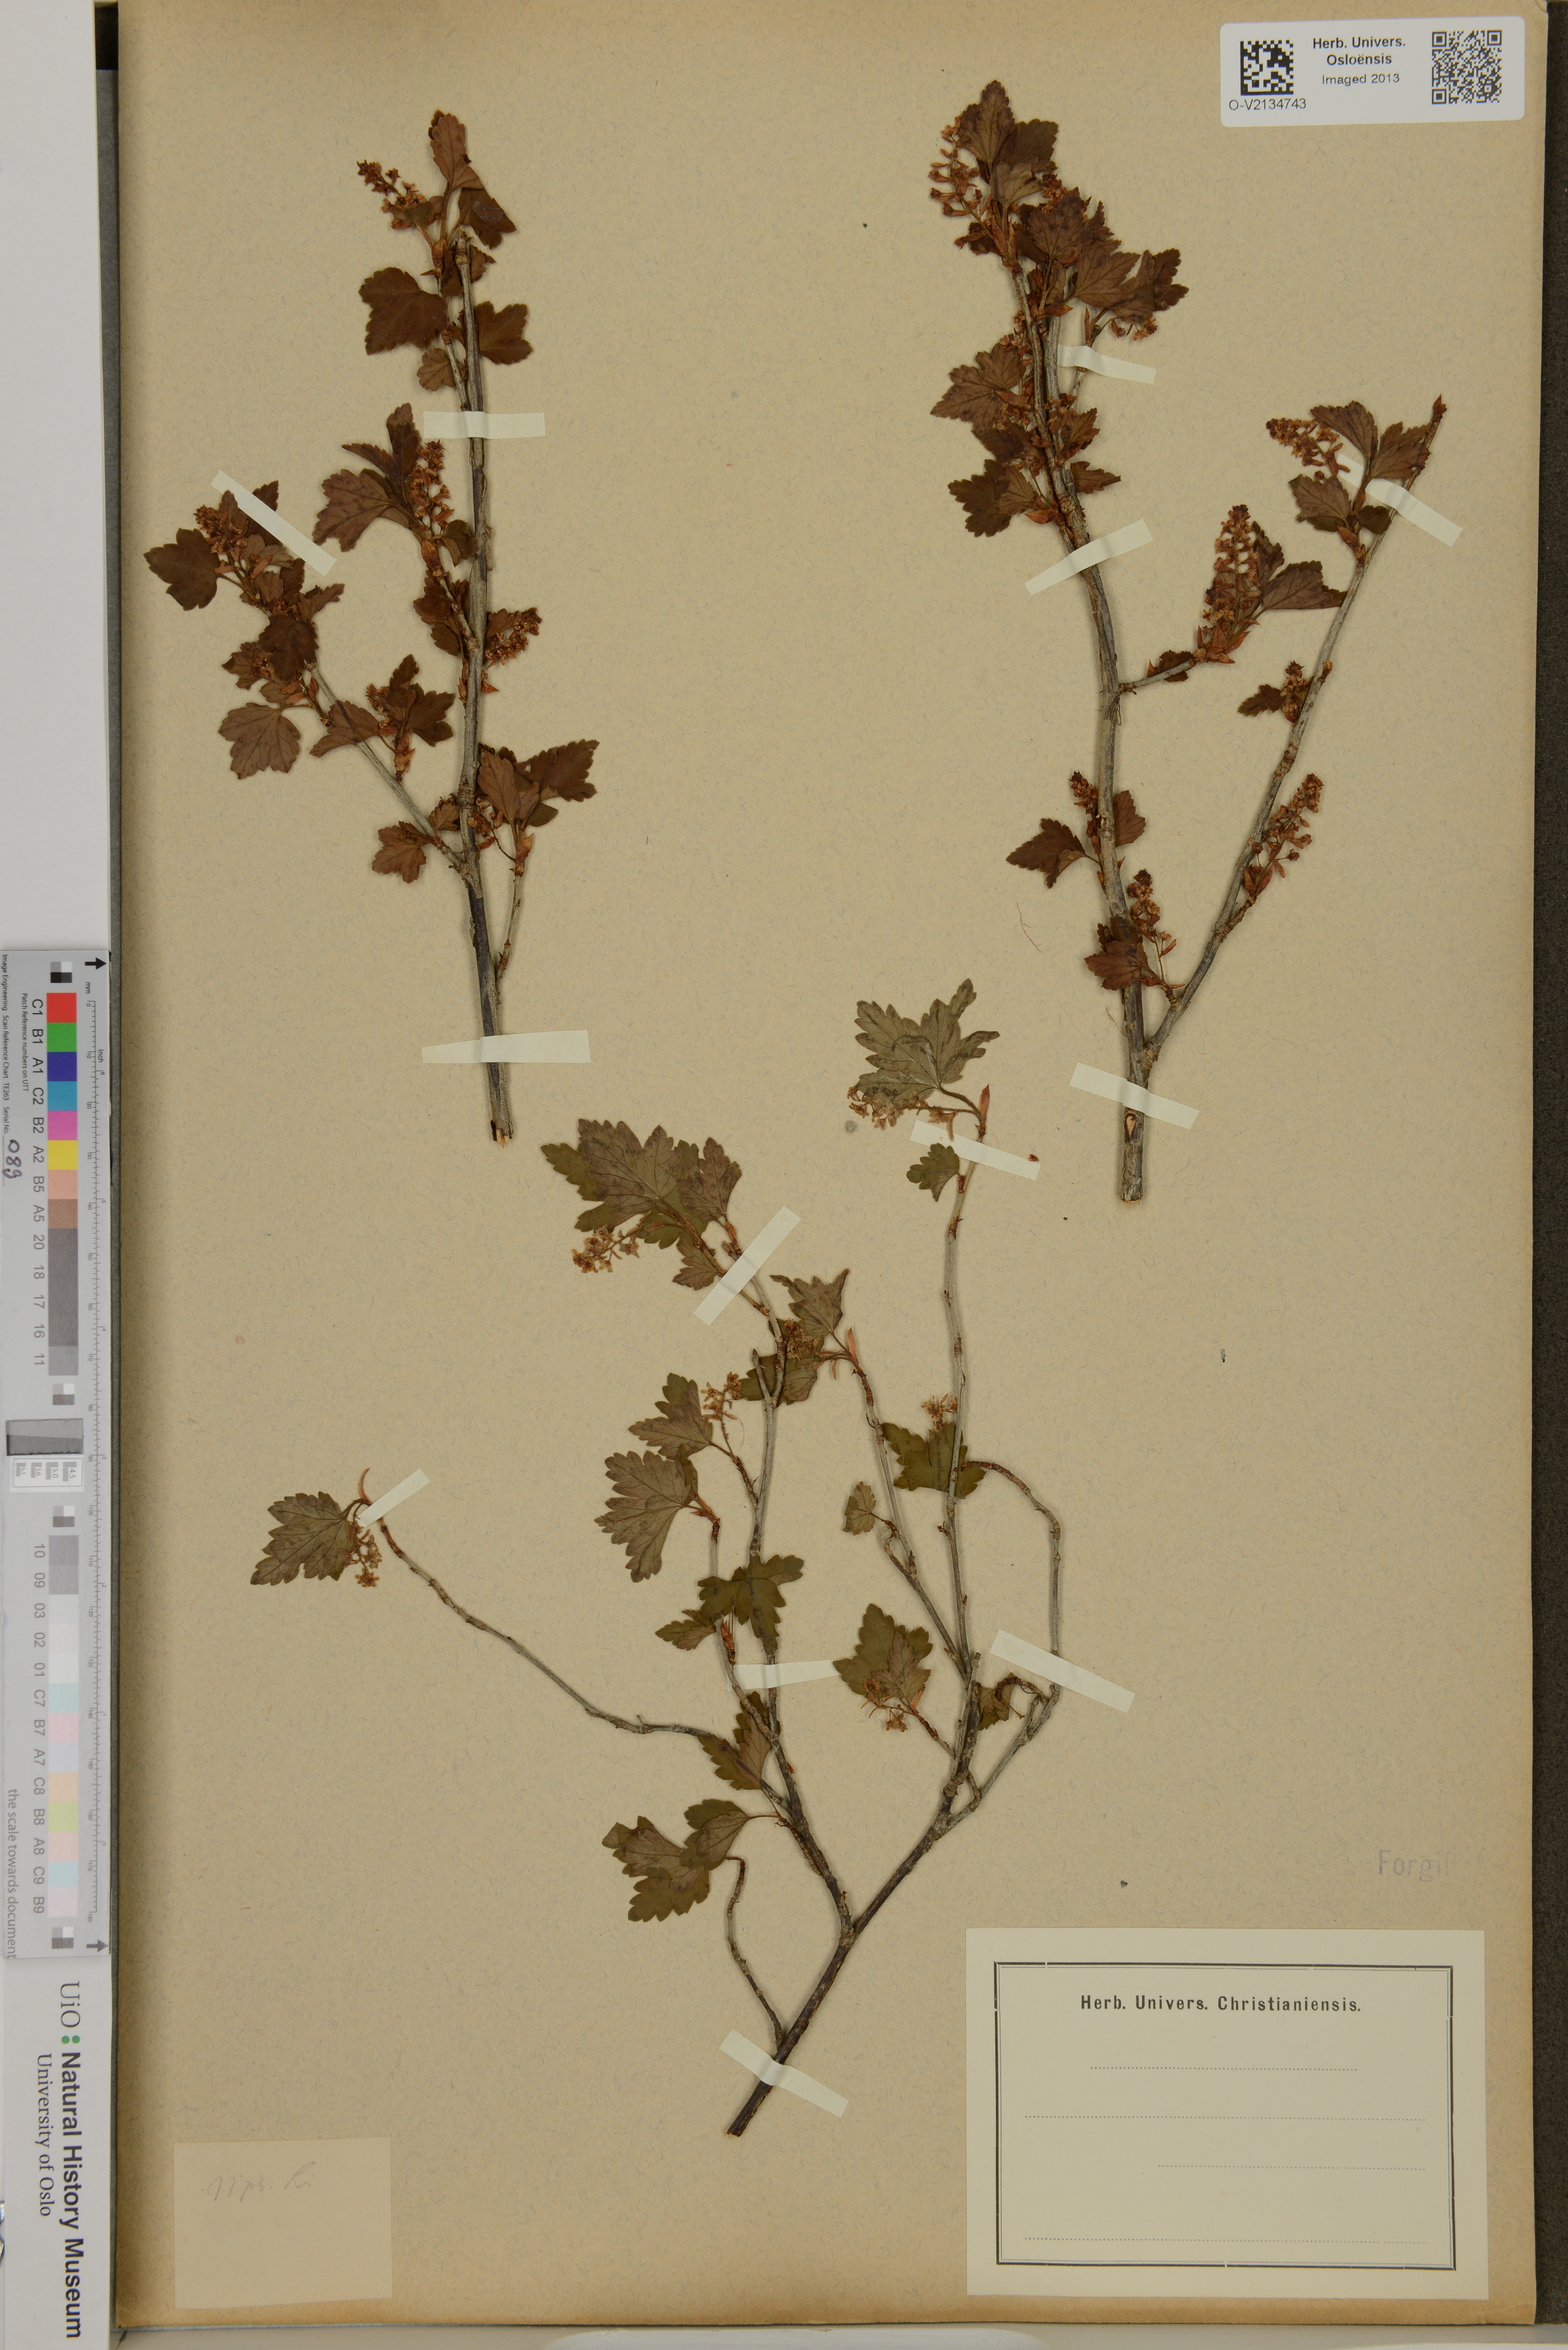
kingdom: Plantae
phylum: Tracheophyta
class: Magnoliopsida
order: Saxifragales
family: Grossulariaceae
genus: Ribes
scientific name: Ribes
